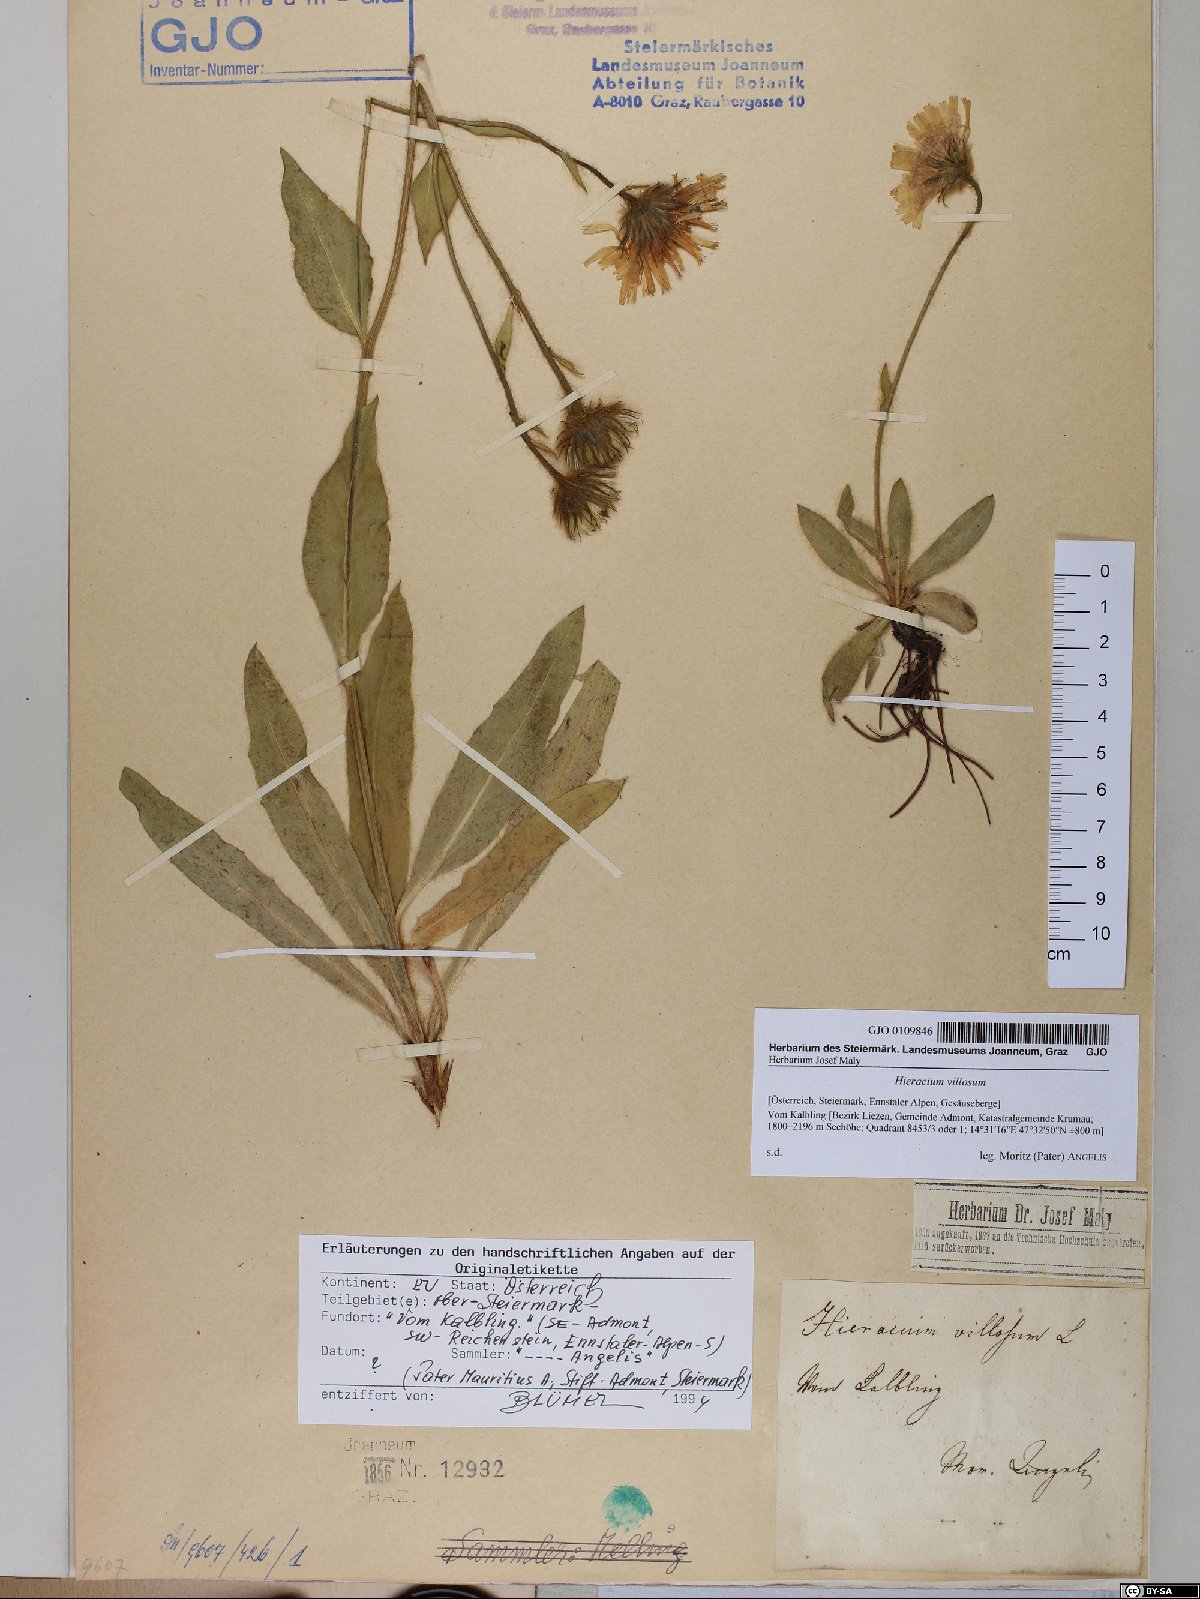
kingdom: Plantae
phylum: Tracheophyta
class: Magnoliopsida
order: Asterales
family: Asteraceae
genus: Hieracium
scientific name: Hieracium villosum
